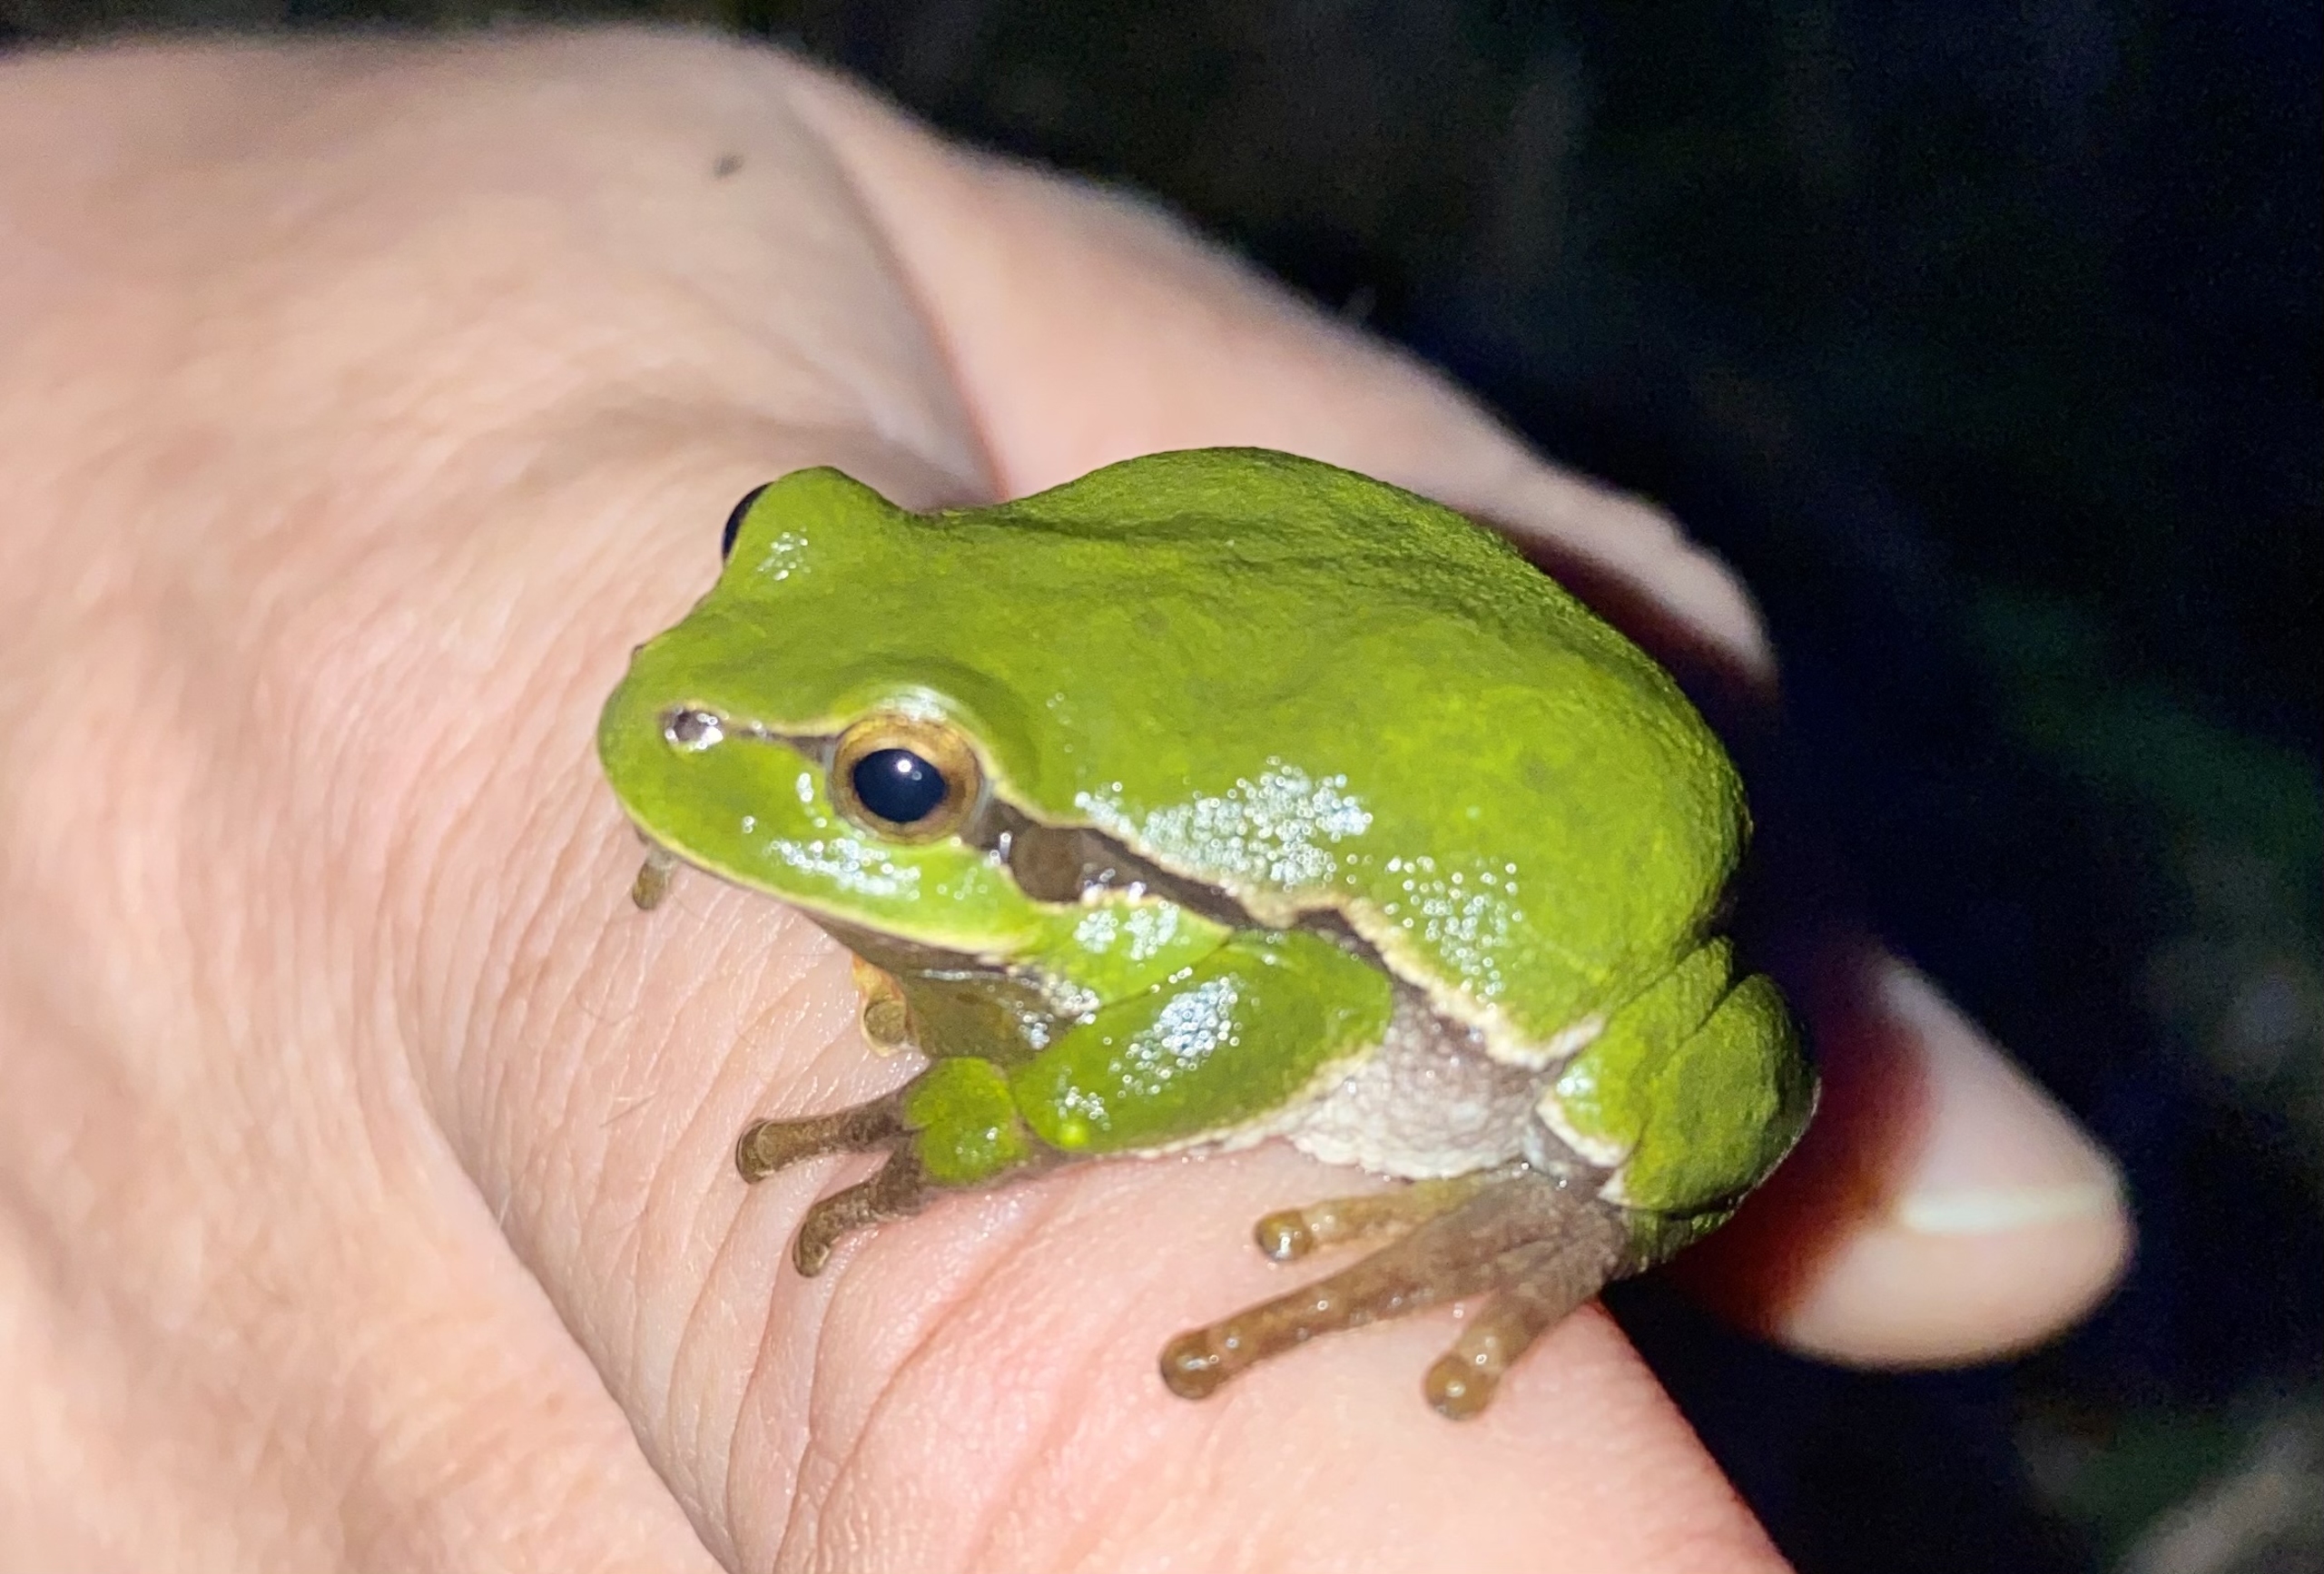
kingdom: Animalia
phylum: Chordata
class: Amphibia
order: Anura
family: Hylidae
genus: Hyla
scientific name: Hyla arborea
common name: Løvfrø
